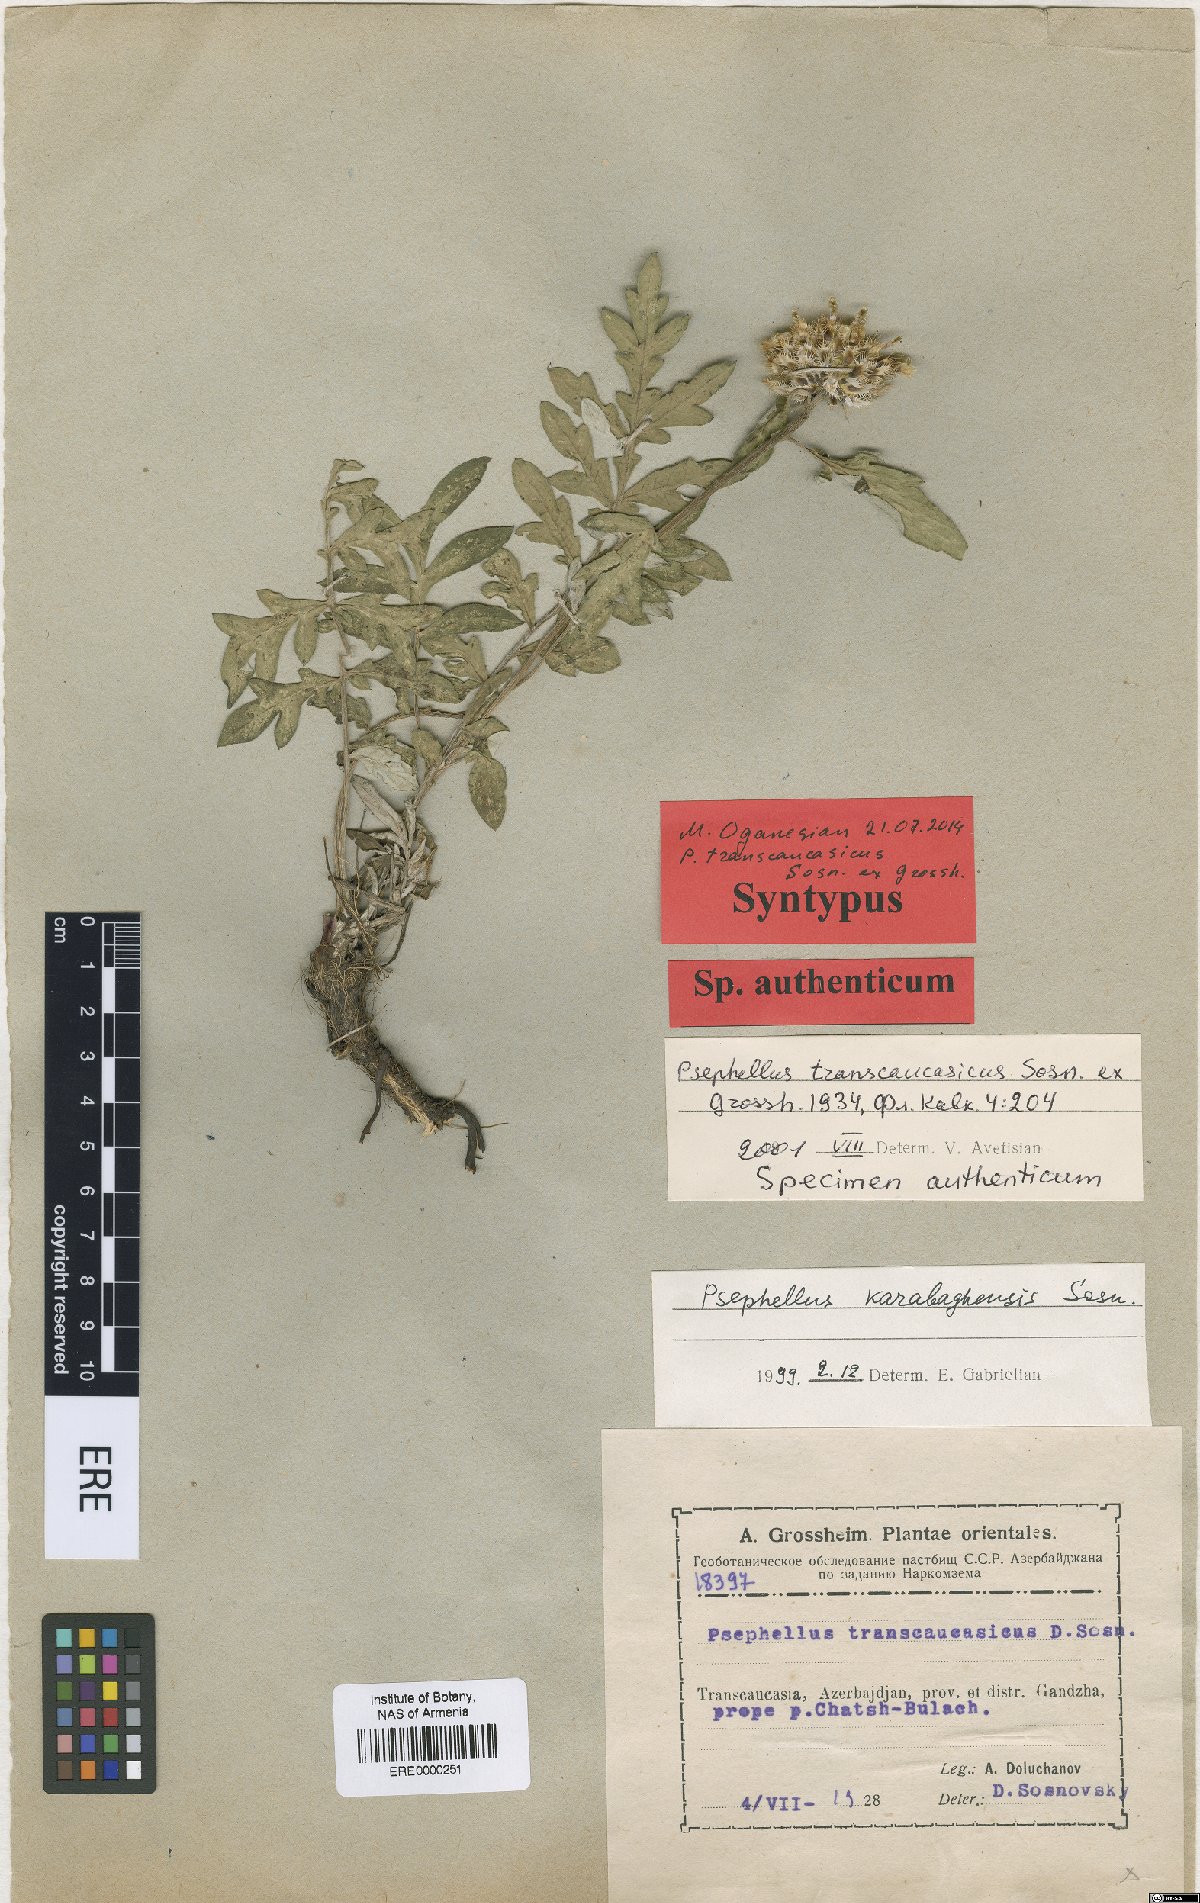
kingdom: Plantae
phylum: Tracheophyta
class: Magnoliopsida
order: Asterales
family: Asteraceae
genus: Psephellus
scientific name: Psephellus transcaucasicus
